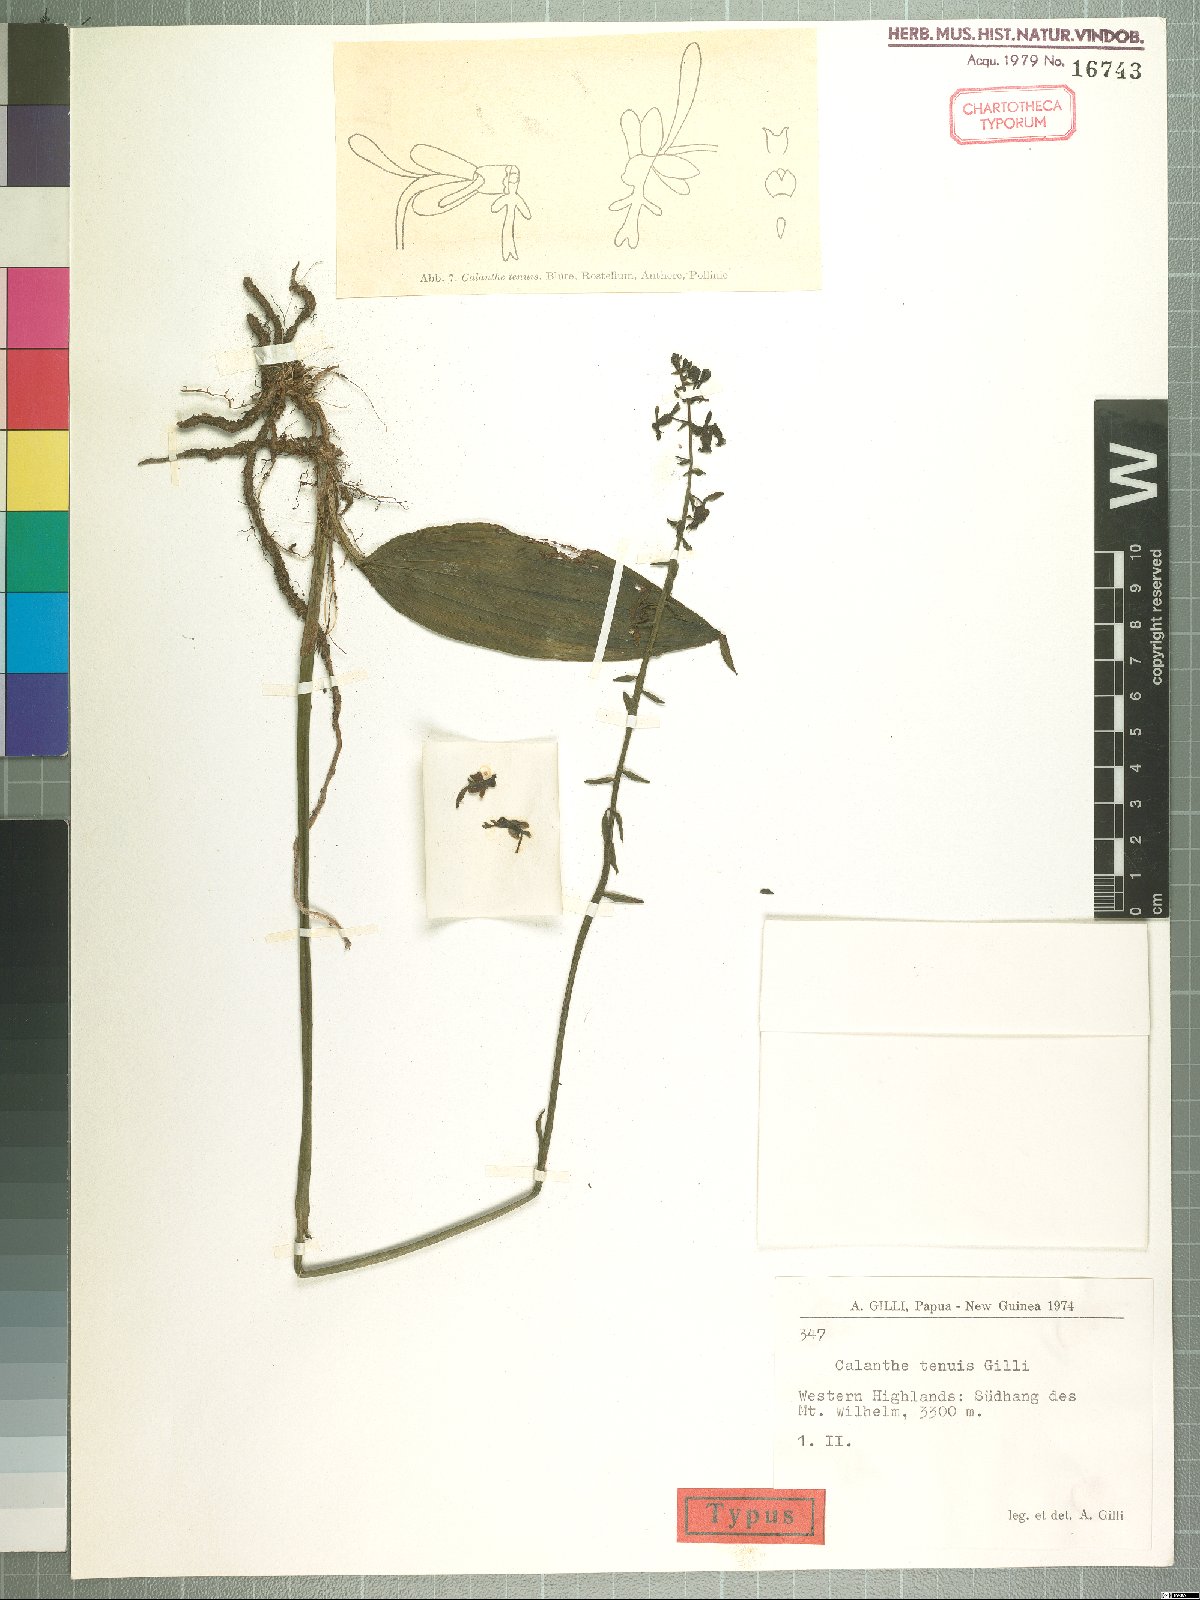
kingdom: Plantae
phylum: Tracheophyta
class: Liliopsida
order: Asparagales
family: Orchidaceae
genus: Calanthe
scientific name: Calanthe micrantha
